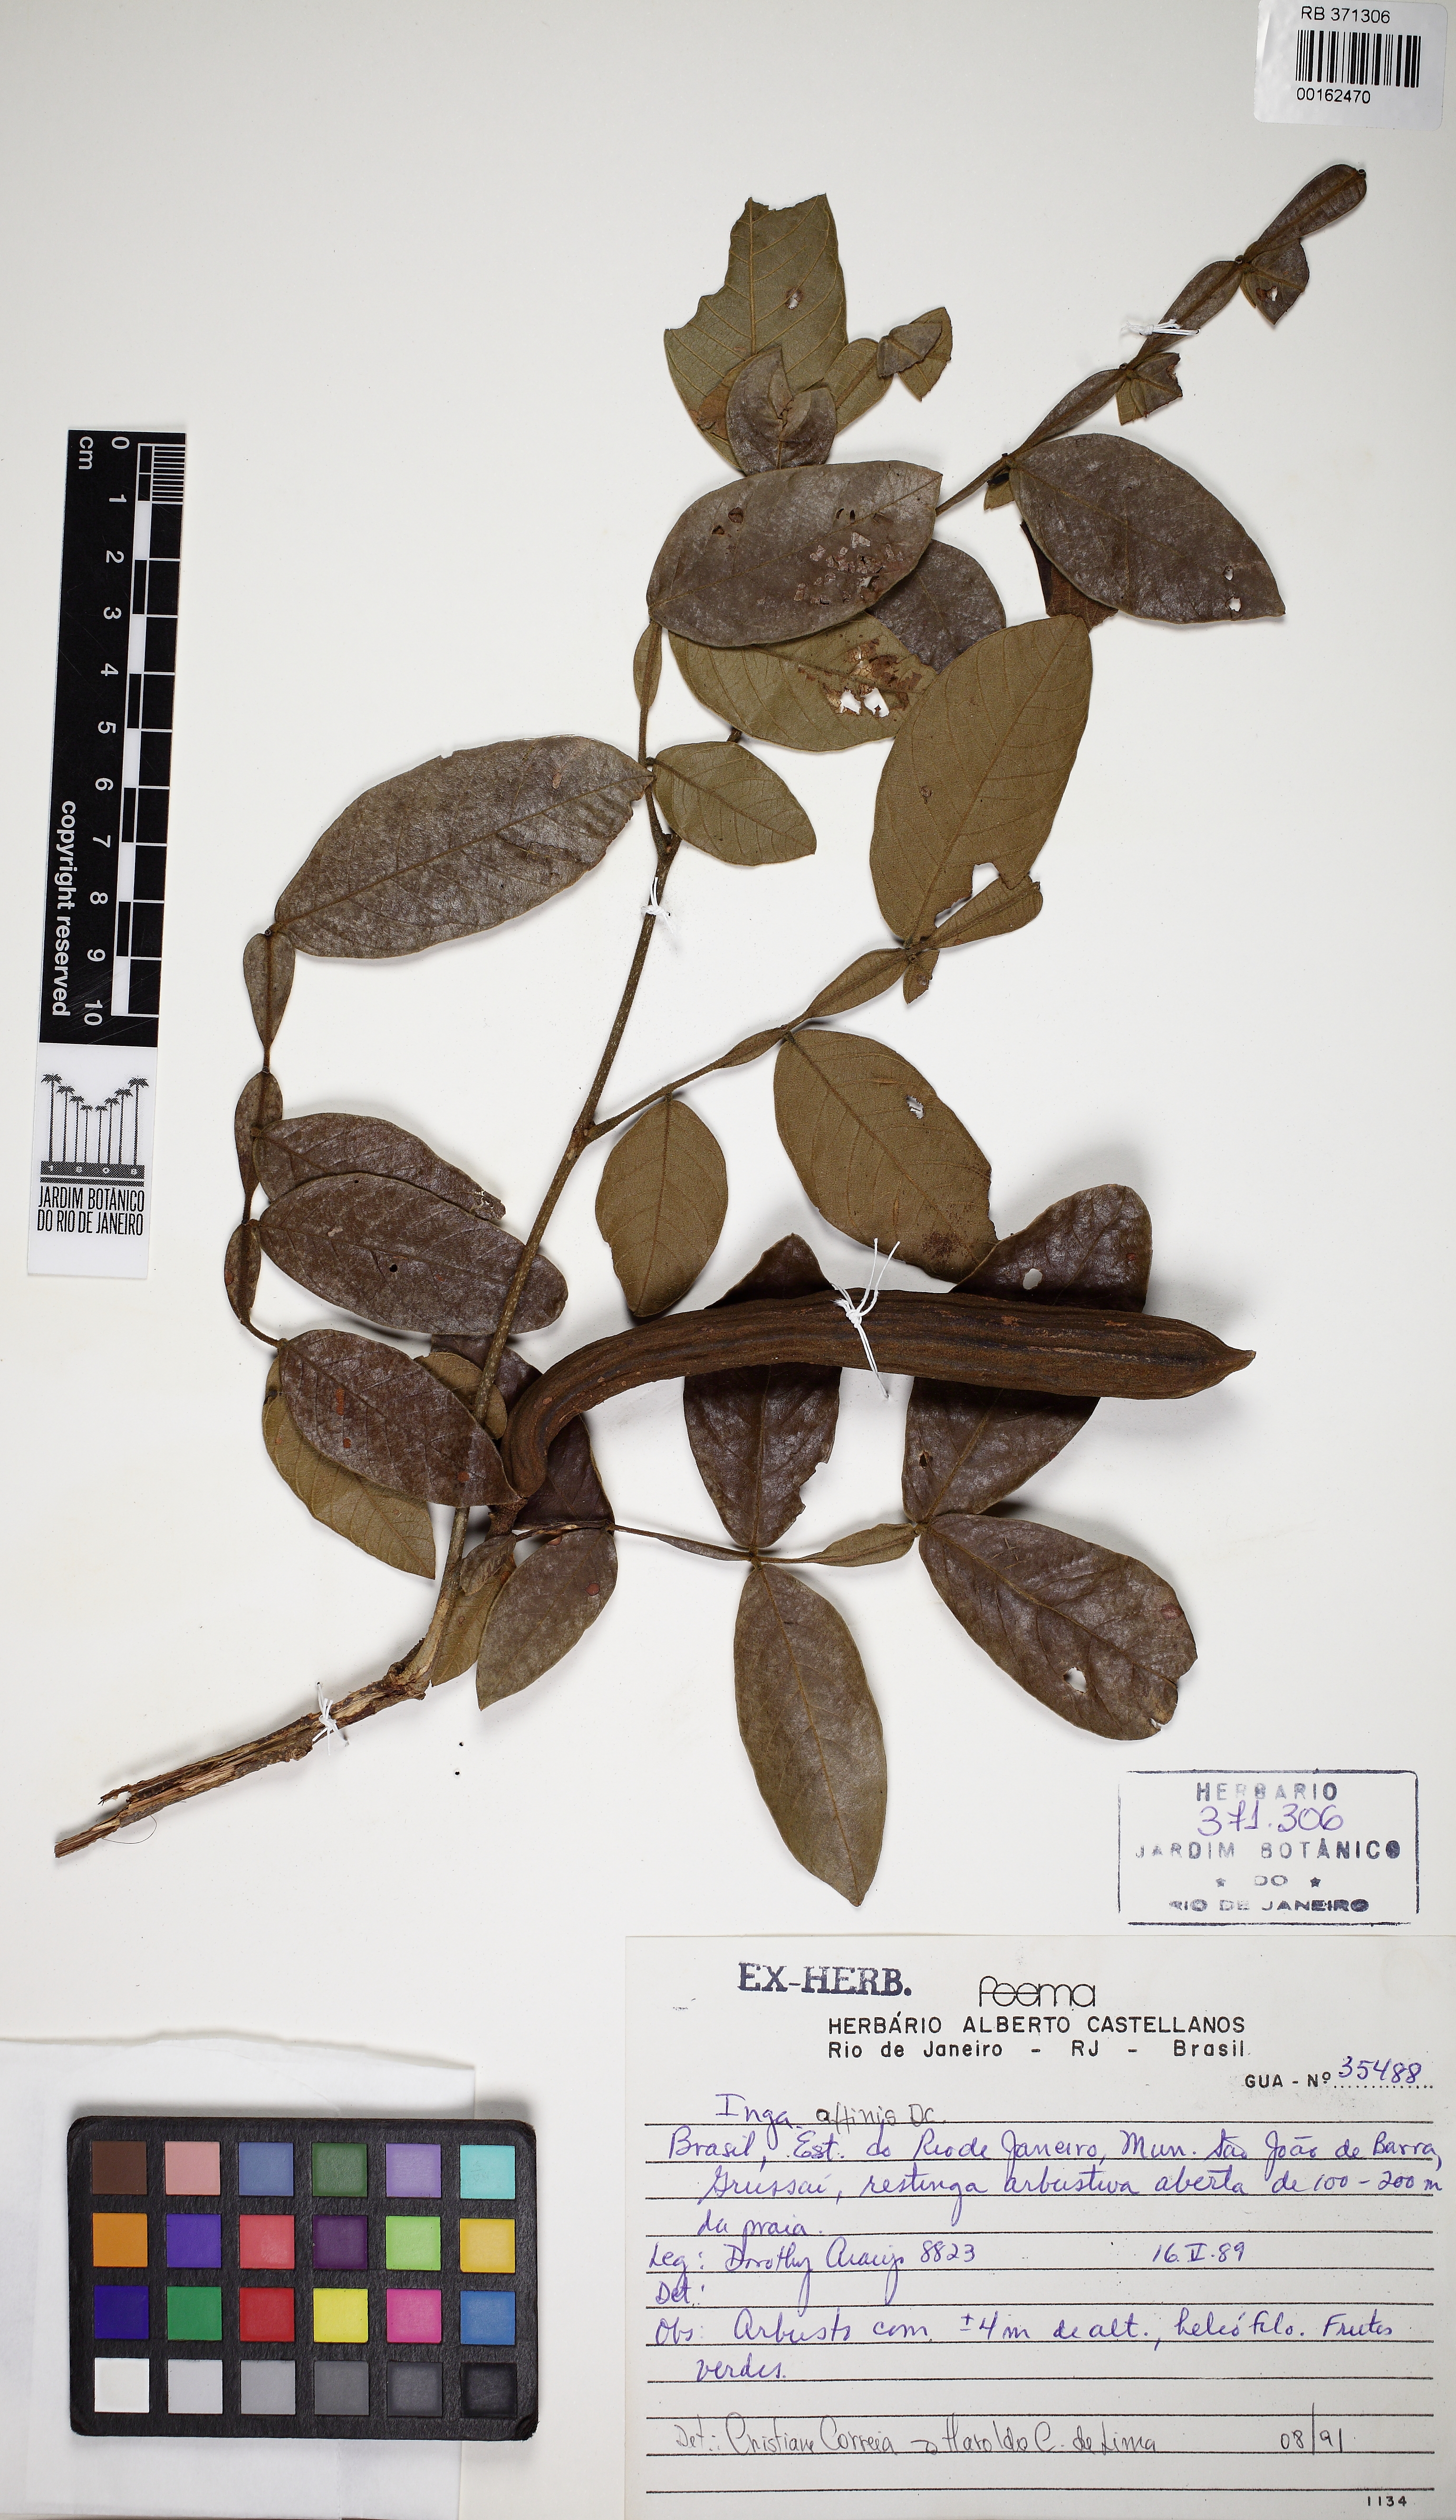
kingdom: Plantae
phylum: Tracheophyta
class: Magnoliopsida
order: Fabales
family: Fabaceae
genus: Inga
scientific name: Inga affinis
